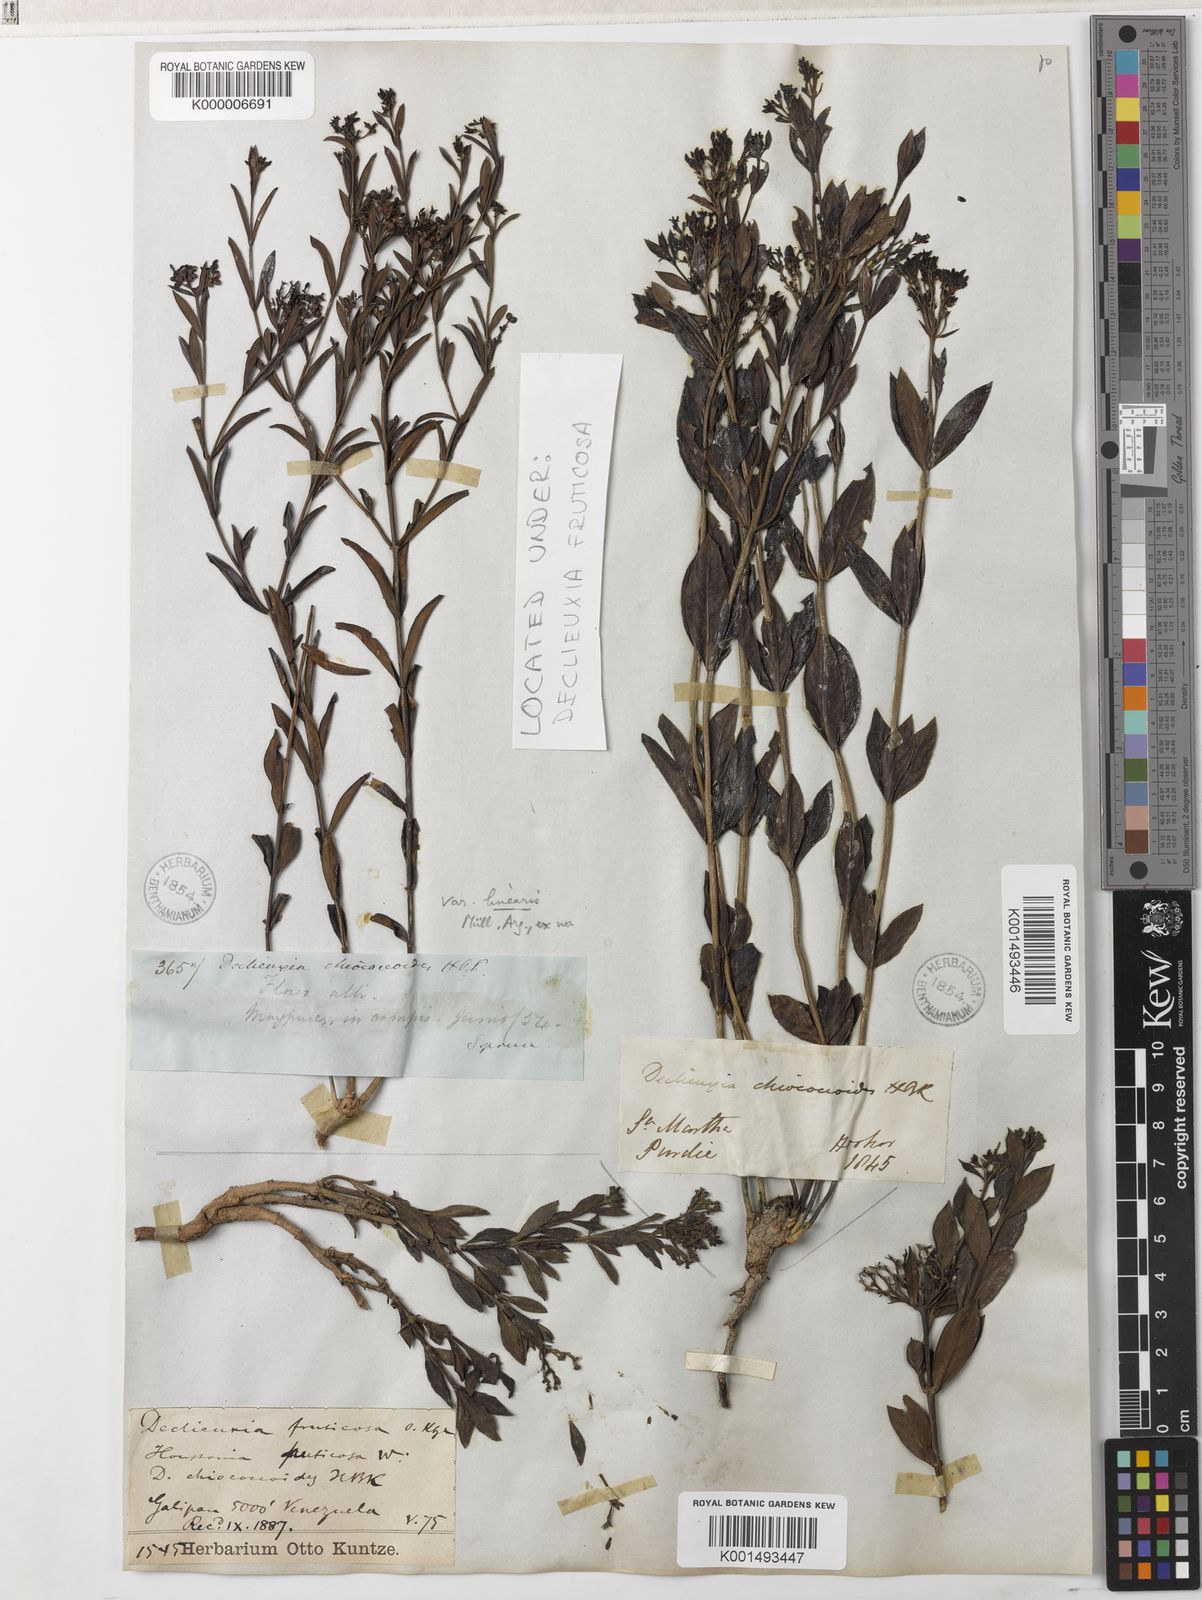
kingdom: Plantae
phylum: Tracheophyta
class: Magnoliopsida
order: Gentianales
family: Rubiaceae
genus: Declieuxia
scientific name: Declieuxia fruticosa
